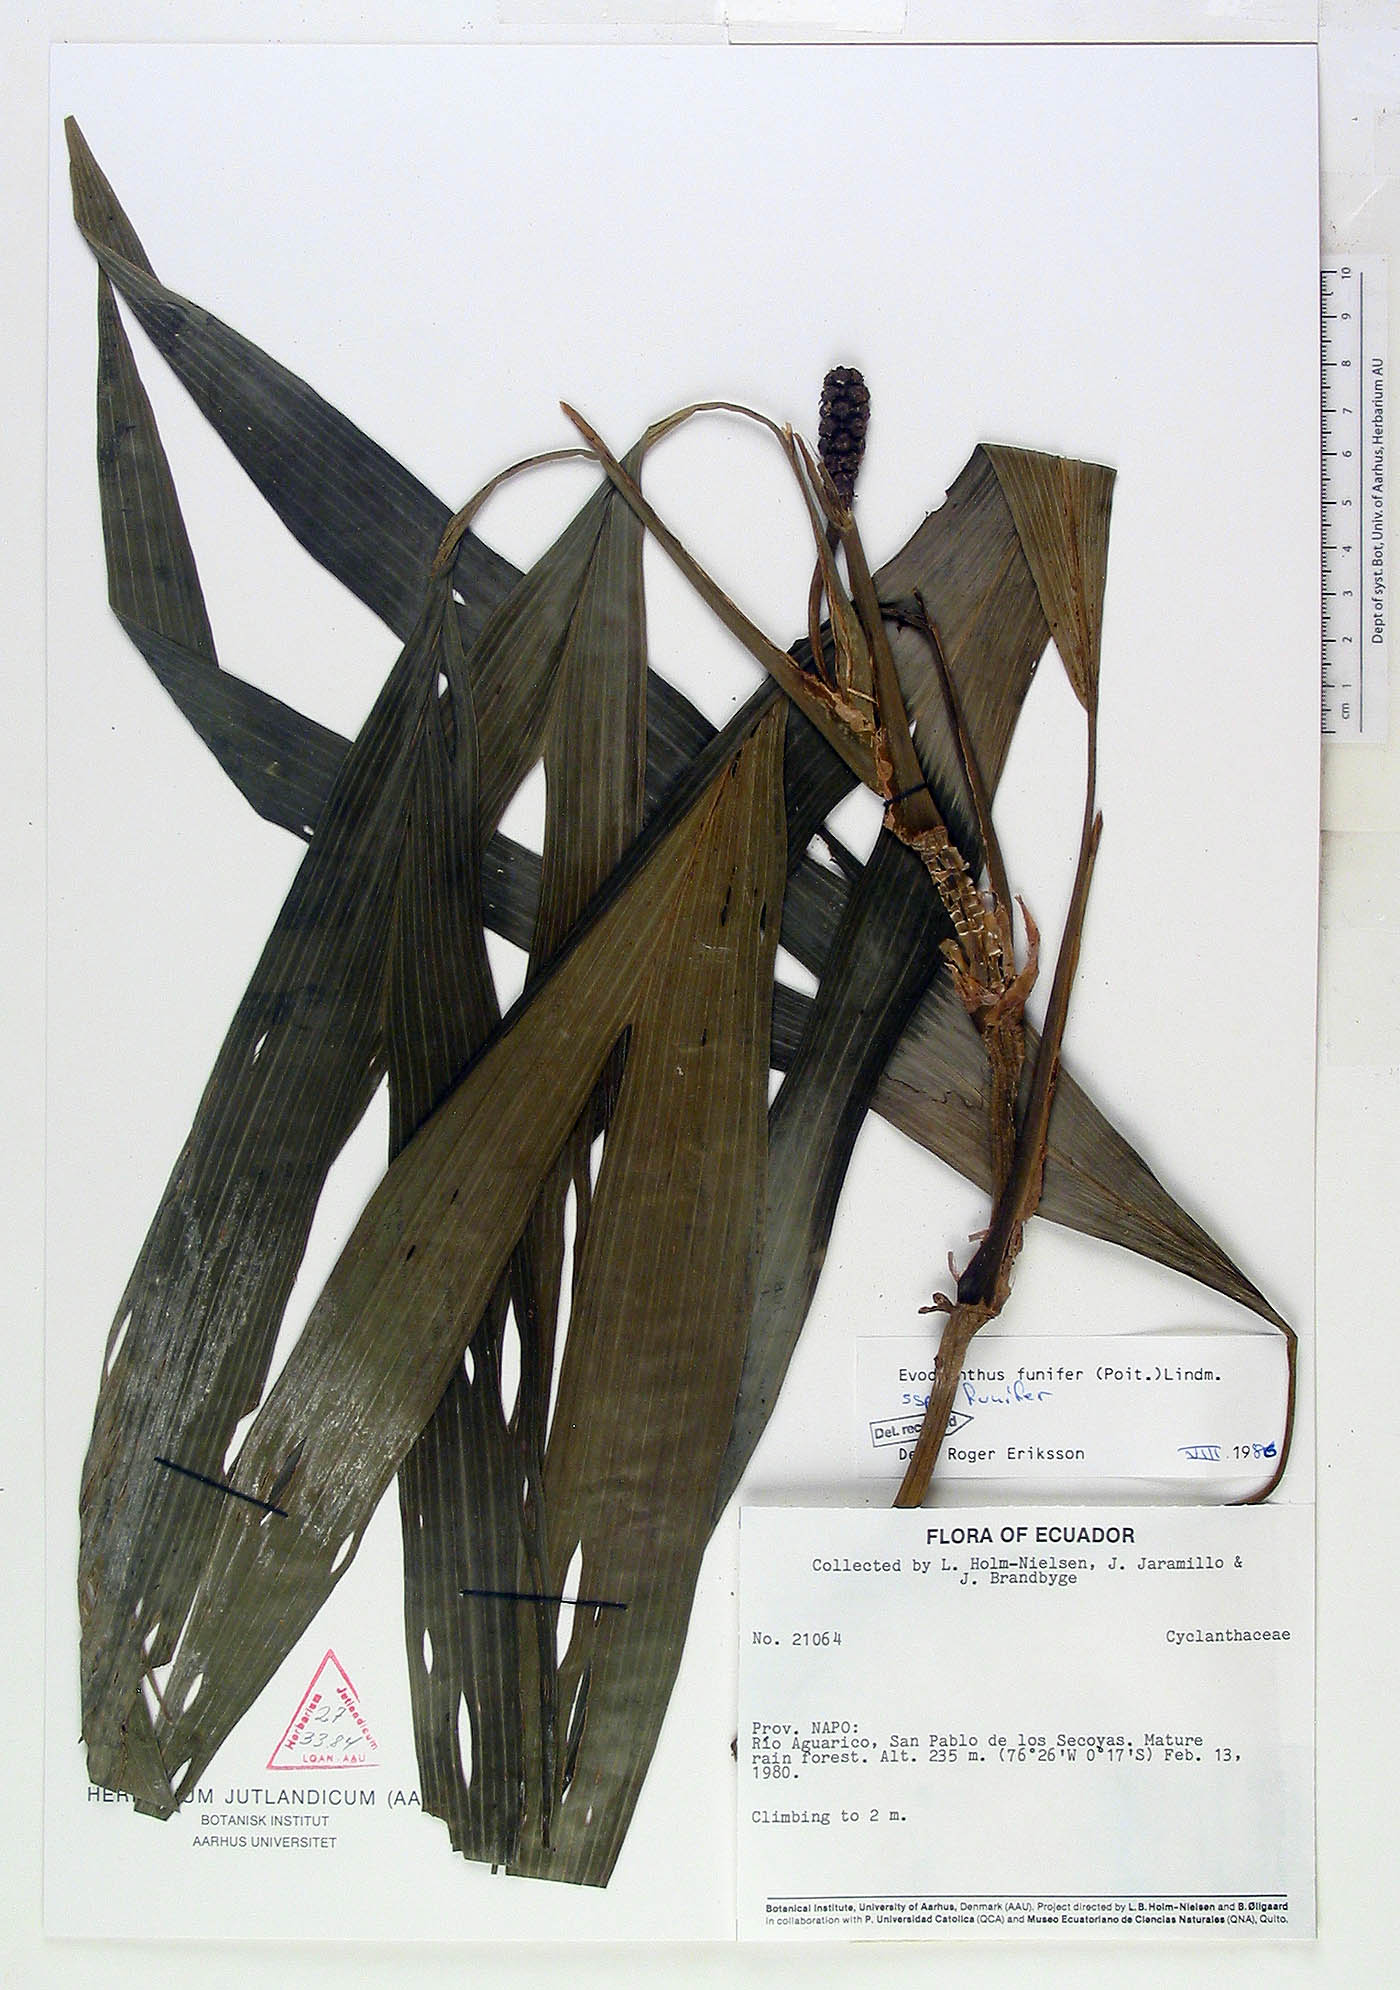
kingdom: Plantae
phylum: Tracheophyta
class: Liliopsida
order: Pandanales
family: Cyclanthaceae
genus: Evodianthus
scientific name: Evodianthus funifer
